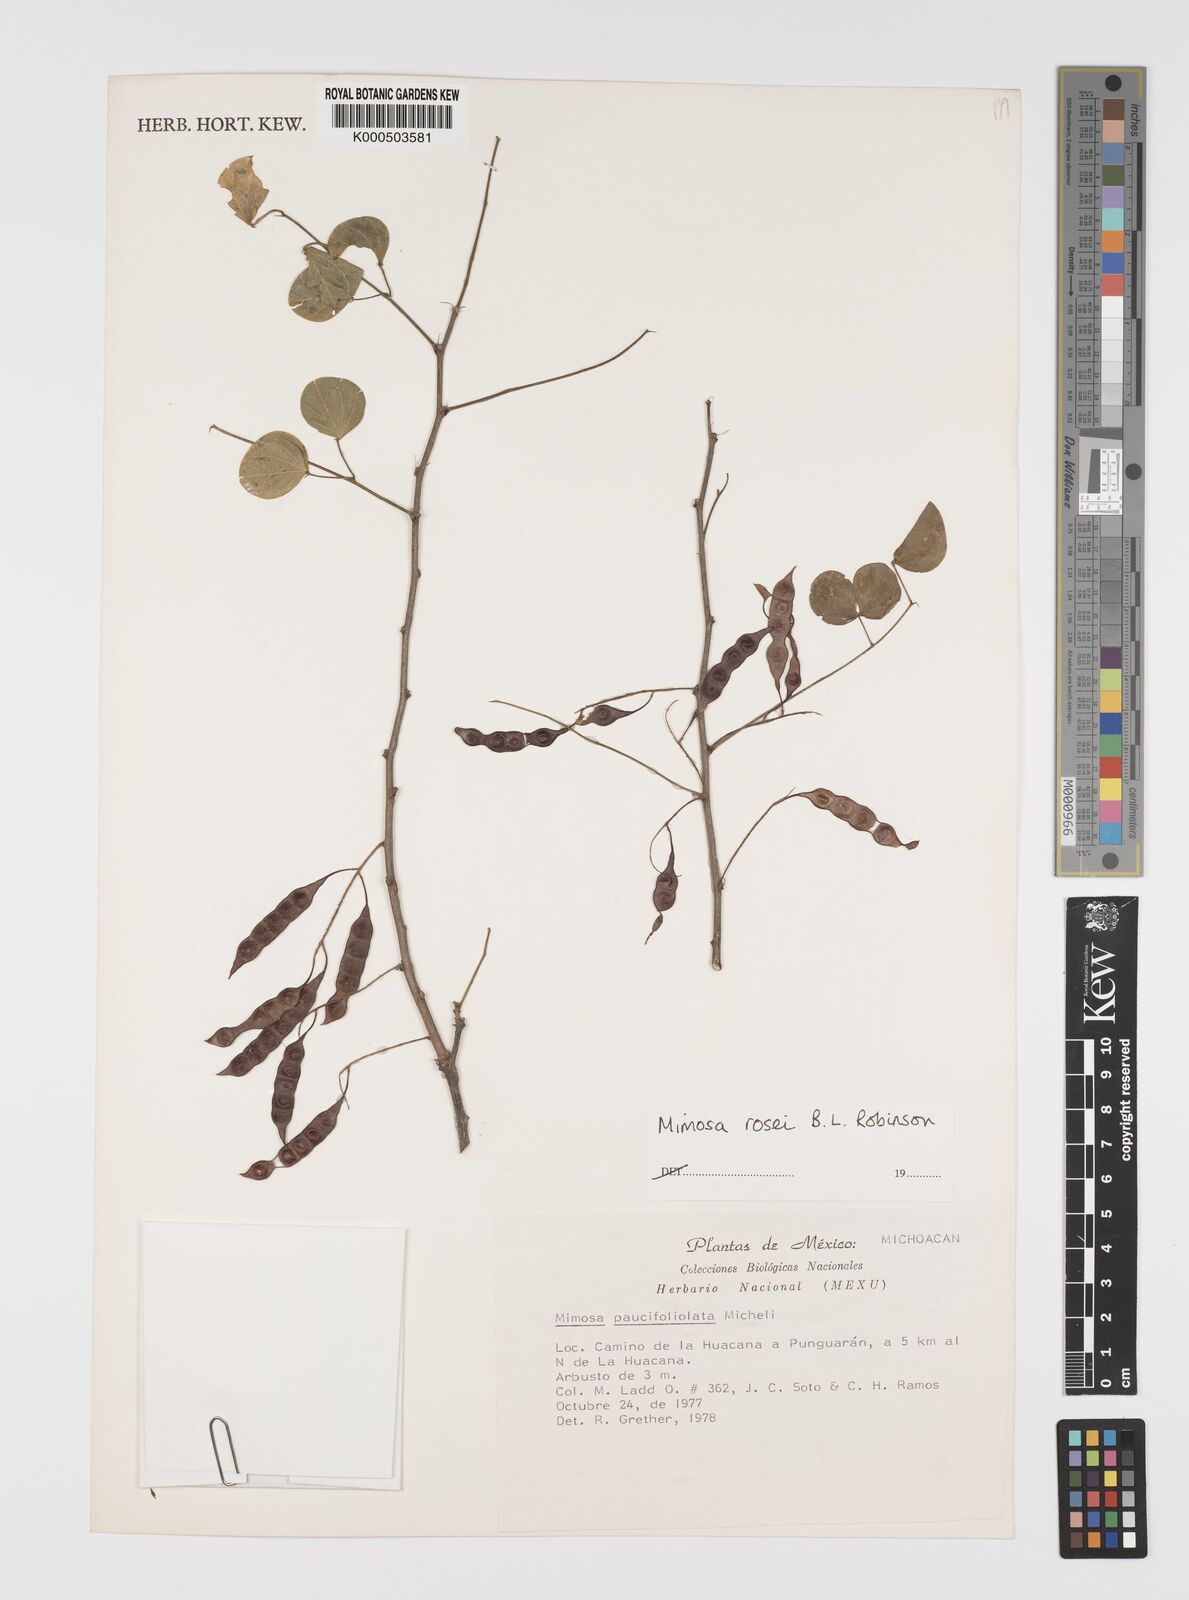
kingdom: Plantae
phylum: Tracheophyta
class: Magnoliopsida
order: Fabales
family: Fabaceae
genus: Mimosa
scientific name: Mimosa rosei
